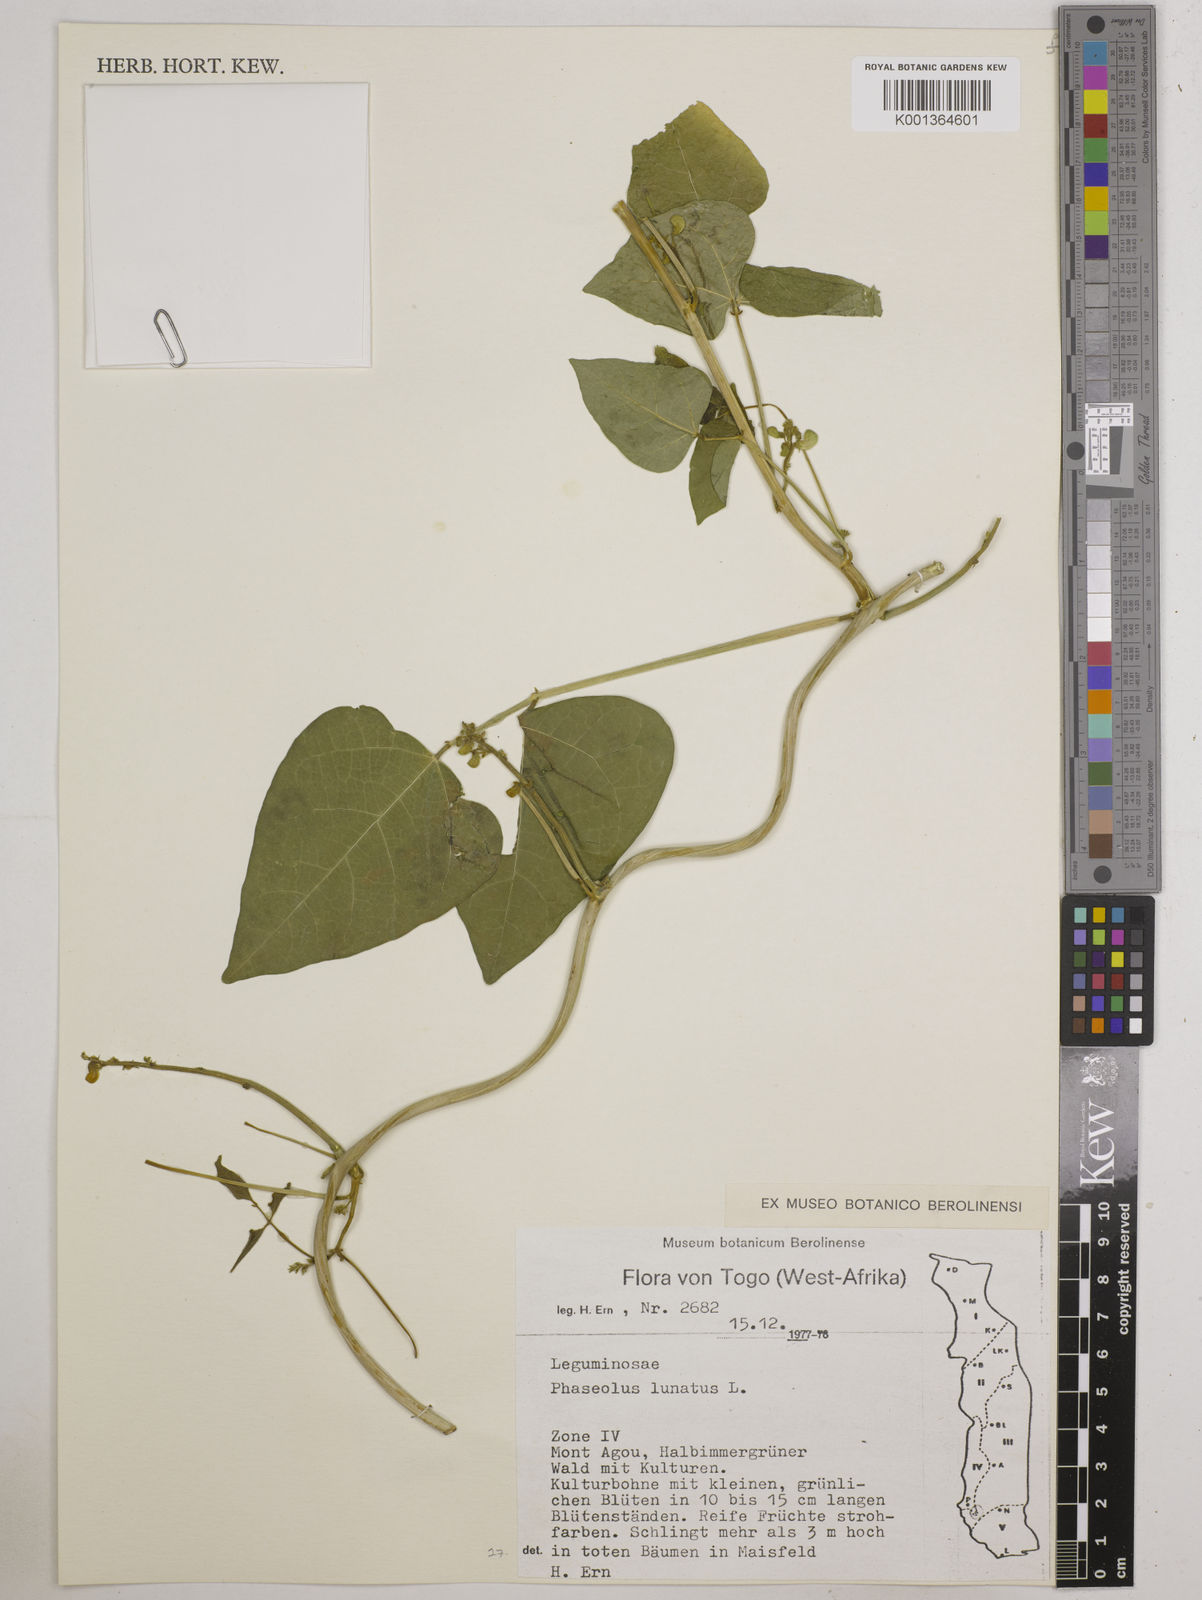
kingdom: Plantae
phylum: Tracheophyta
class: Magnoliopsida
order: Fabales
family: Fabaceae
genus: Phaseolus
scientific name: Phaseolus lunatus
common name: Sieva bean
